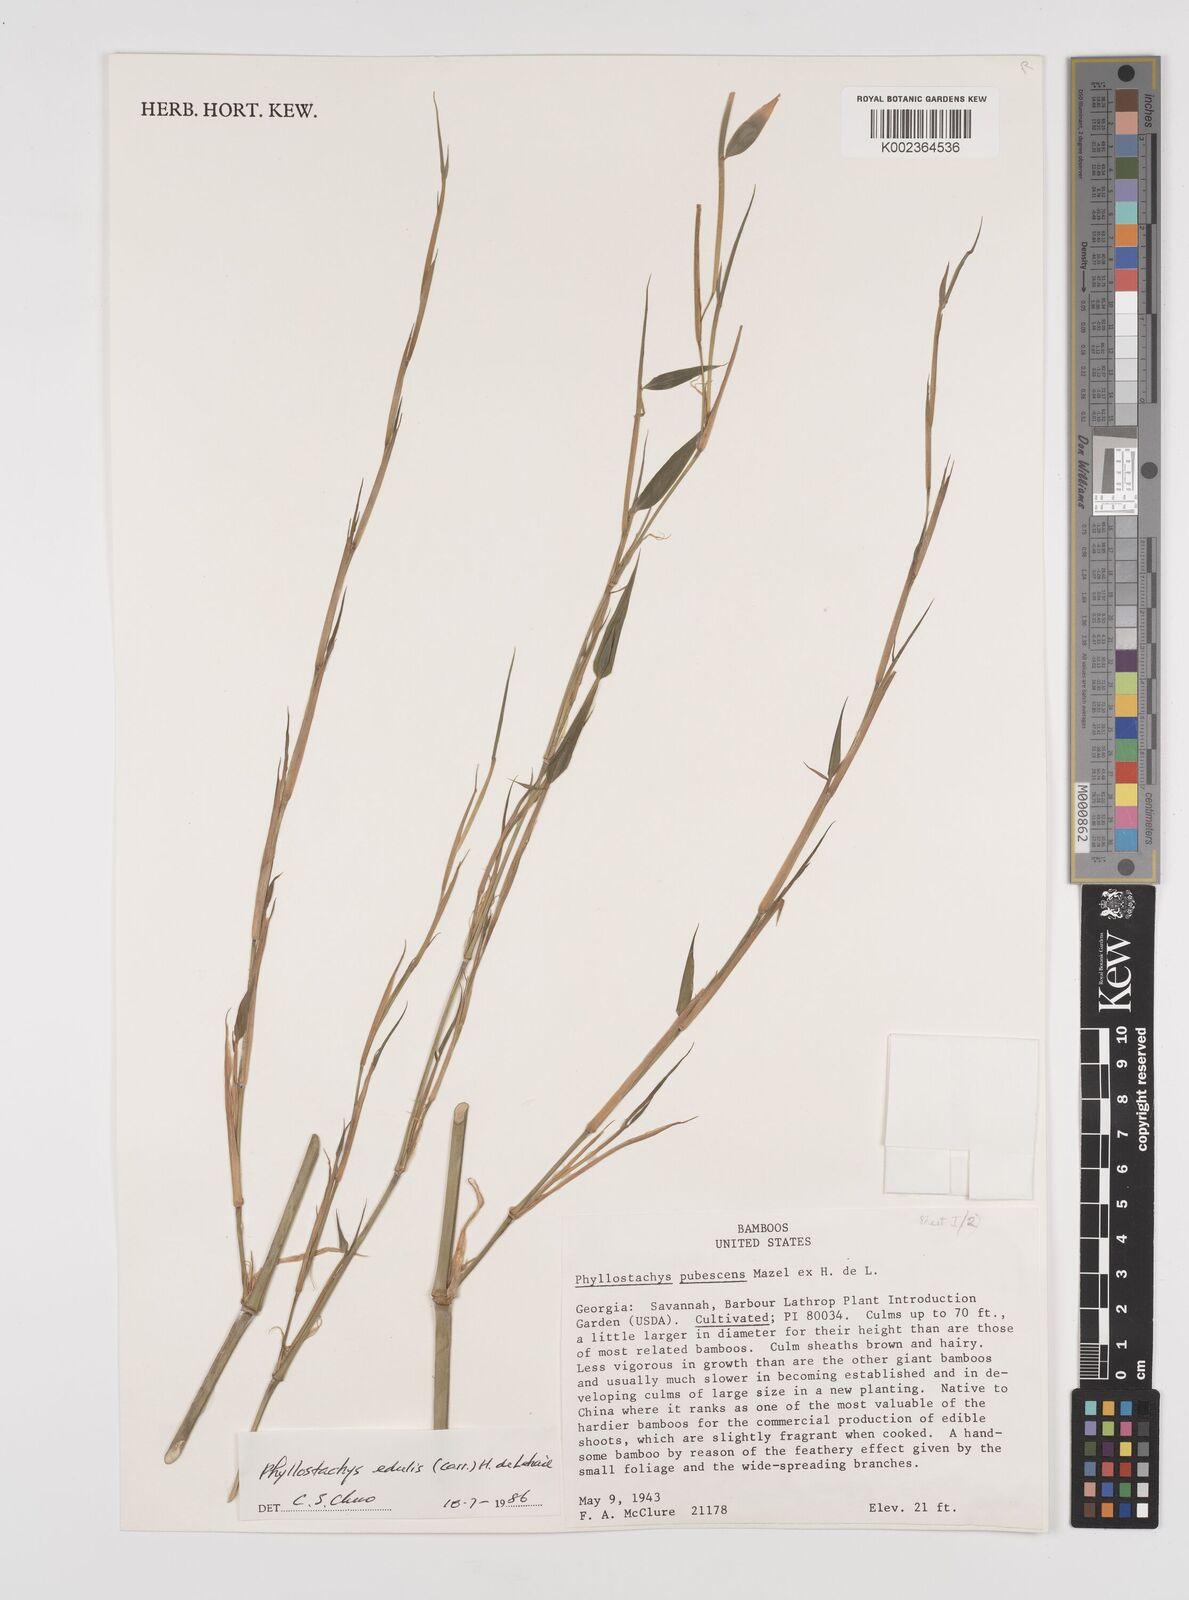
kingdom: Plantae
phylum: Tracheophyta
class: Liliopsida
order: Poales
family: Poaceae
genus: Phyllostachys
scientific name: Phyllostachys edulis
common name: Tortoise shell bamboo
